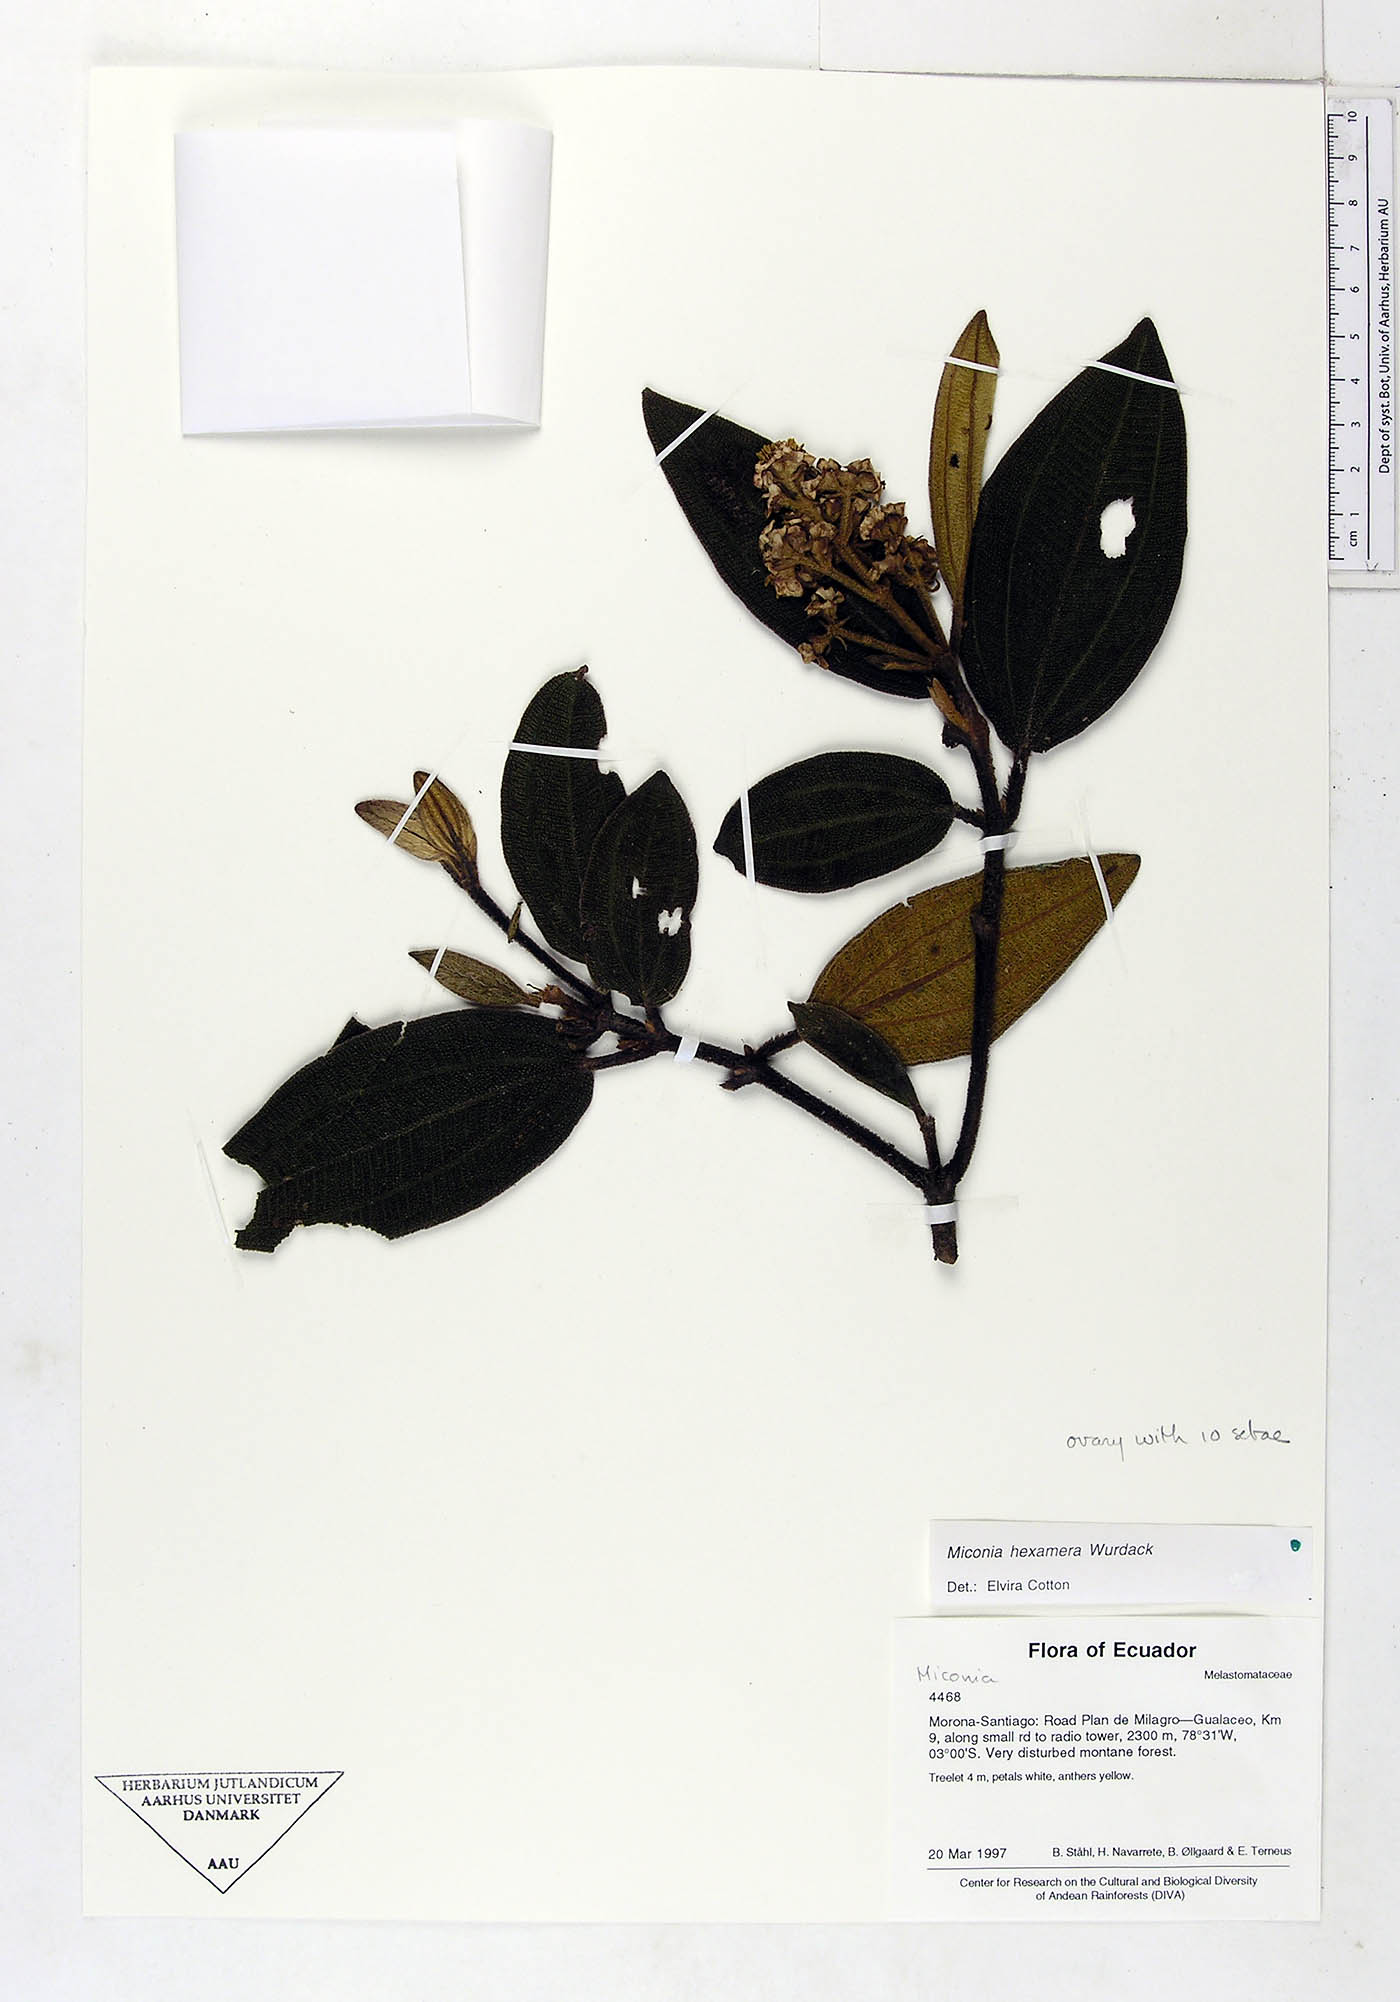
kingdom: Plantae
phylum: Tracheophyta
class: Magnoliopsida
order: Myrtales
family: Melastomataceae
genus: Miconia
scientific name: Miconia hexamera
